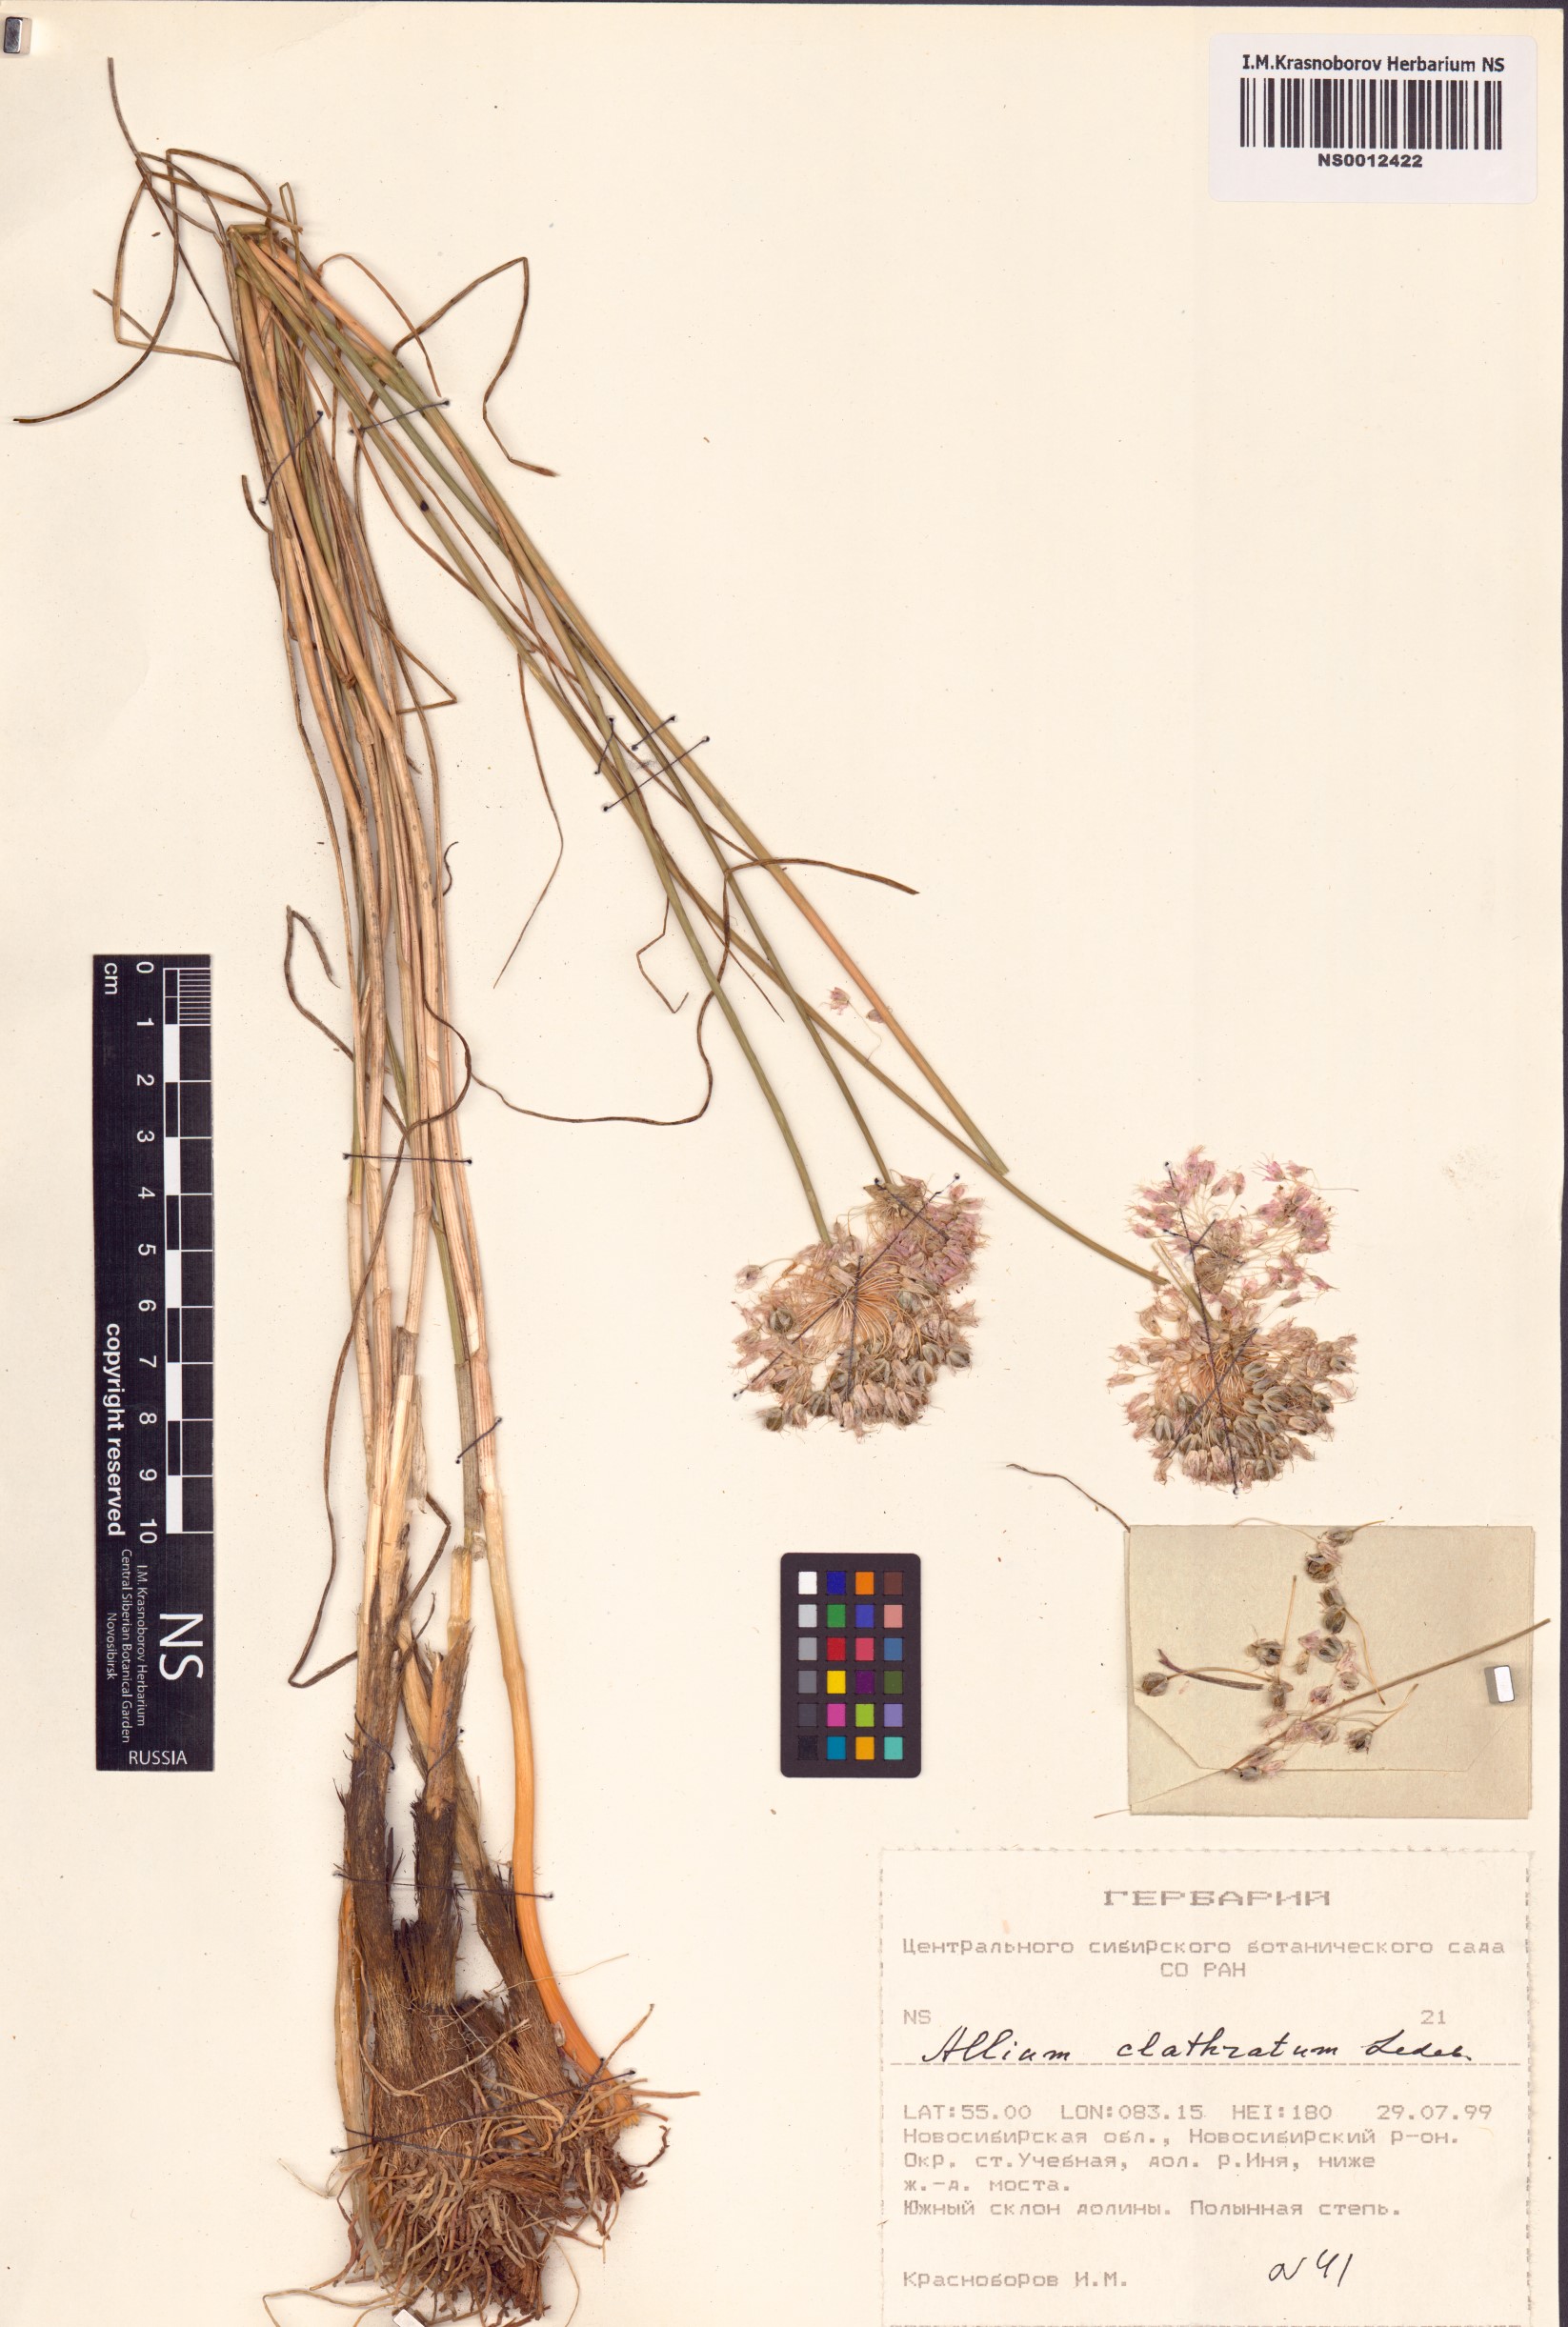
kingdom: Plantae
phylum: Tracheophyta
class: Liliopsida
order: Asparagales
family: Amaryllidaceae
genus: Allium
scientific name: Allium clathratum
